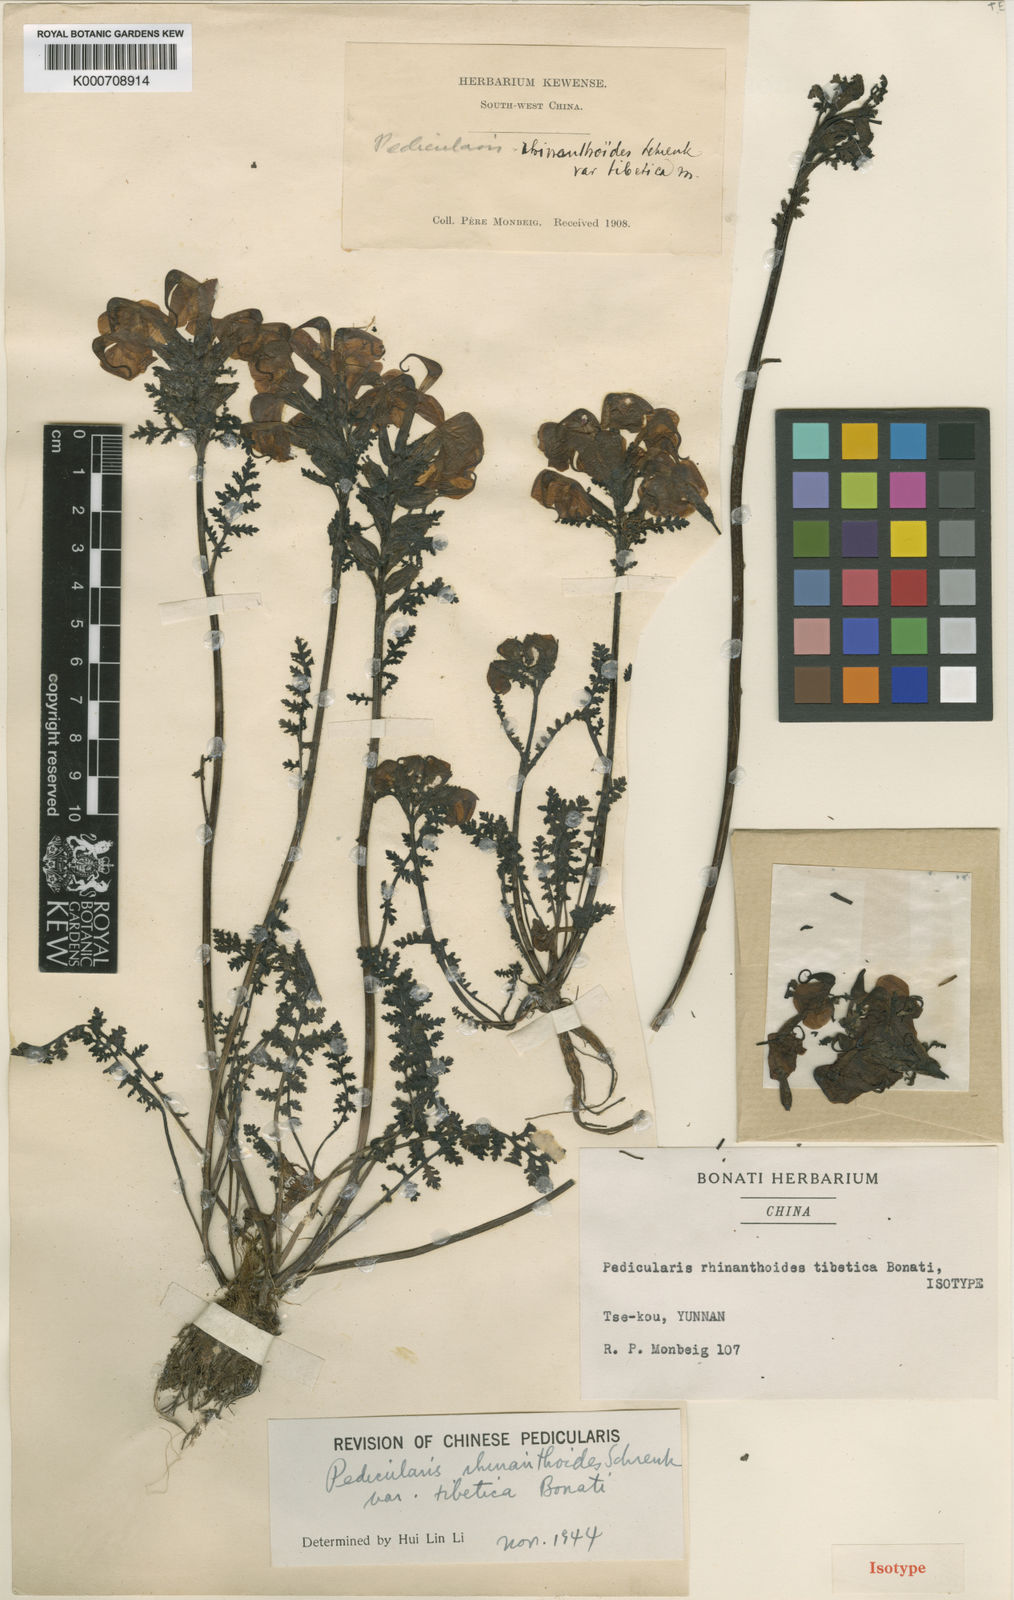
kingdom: Plantae
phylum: Tracheophyta
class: Magnoliopsida
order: Lamiales
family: Orobanchaceae
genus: Pedicularis
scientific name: Pedicularis rhinanthoides
